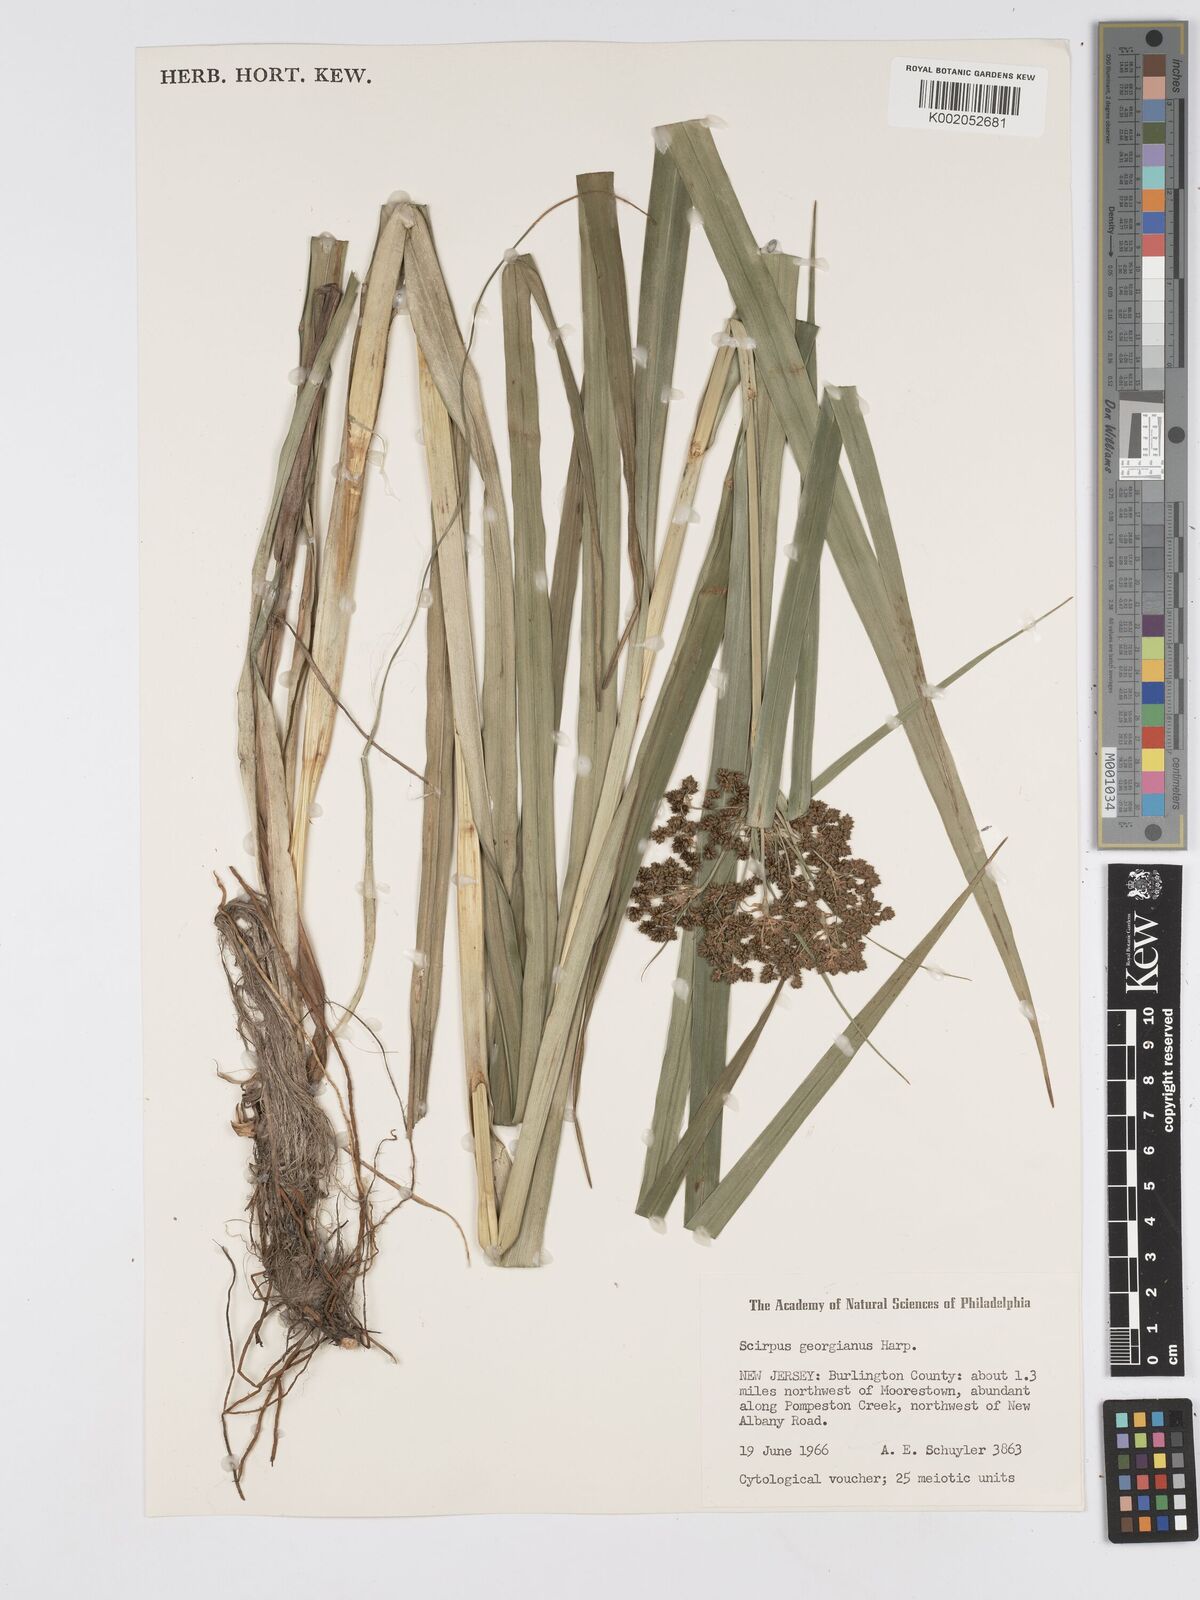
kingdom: Plantae
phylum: Tracheophyta
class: Liliopsida
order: Poales
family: Cyperaceae
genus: Scirpus
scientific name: Scirpus georgianus
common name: Bristleless dark-green bulrush
